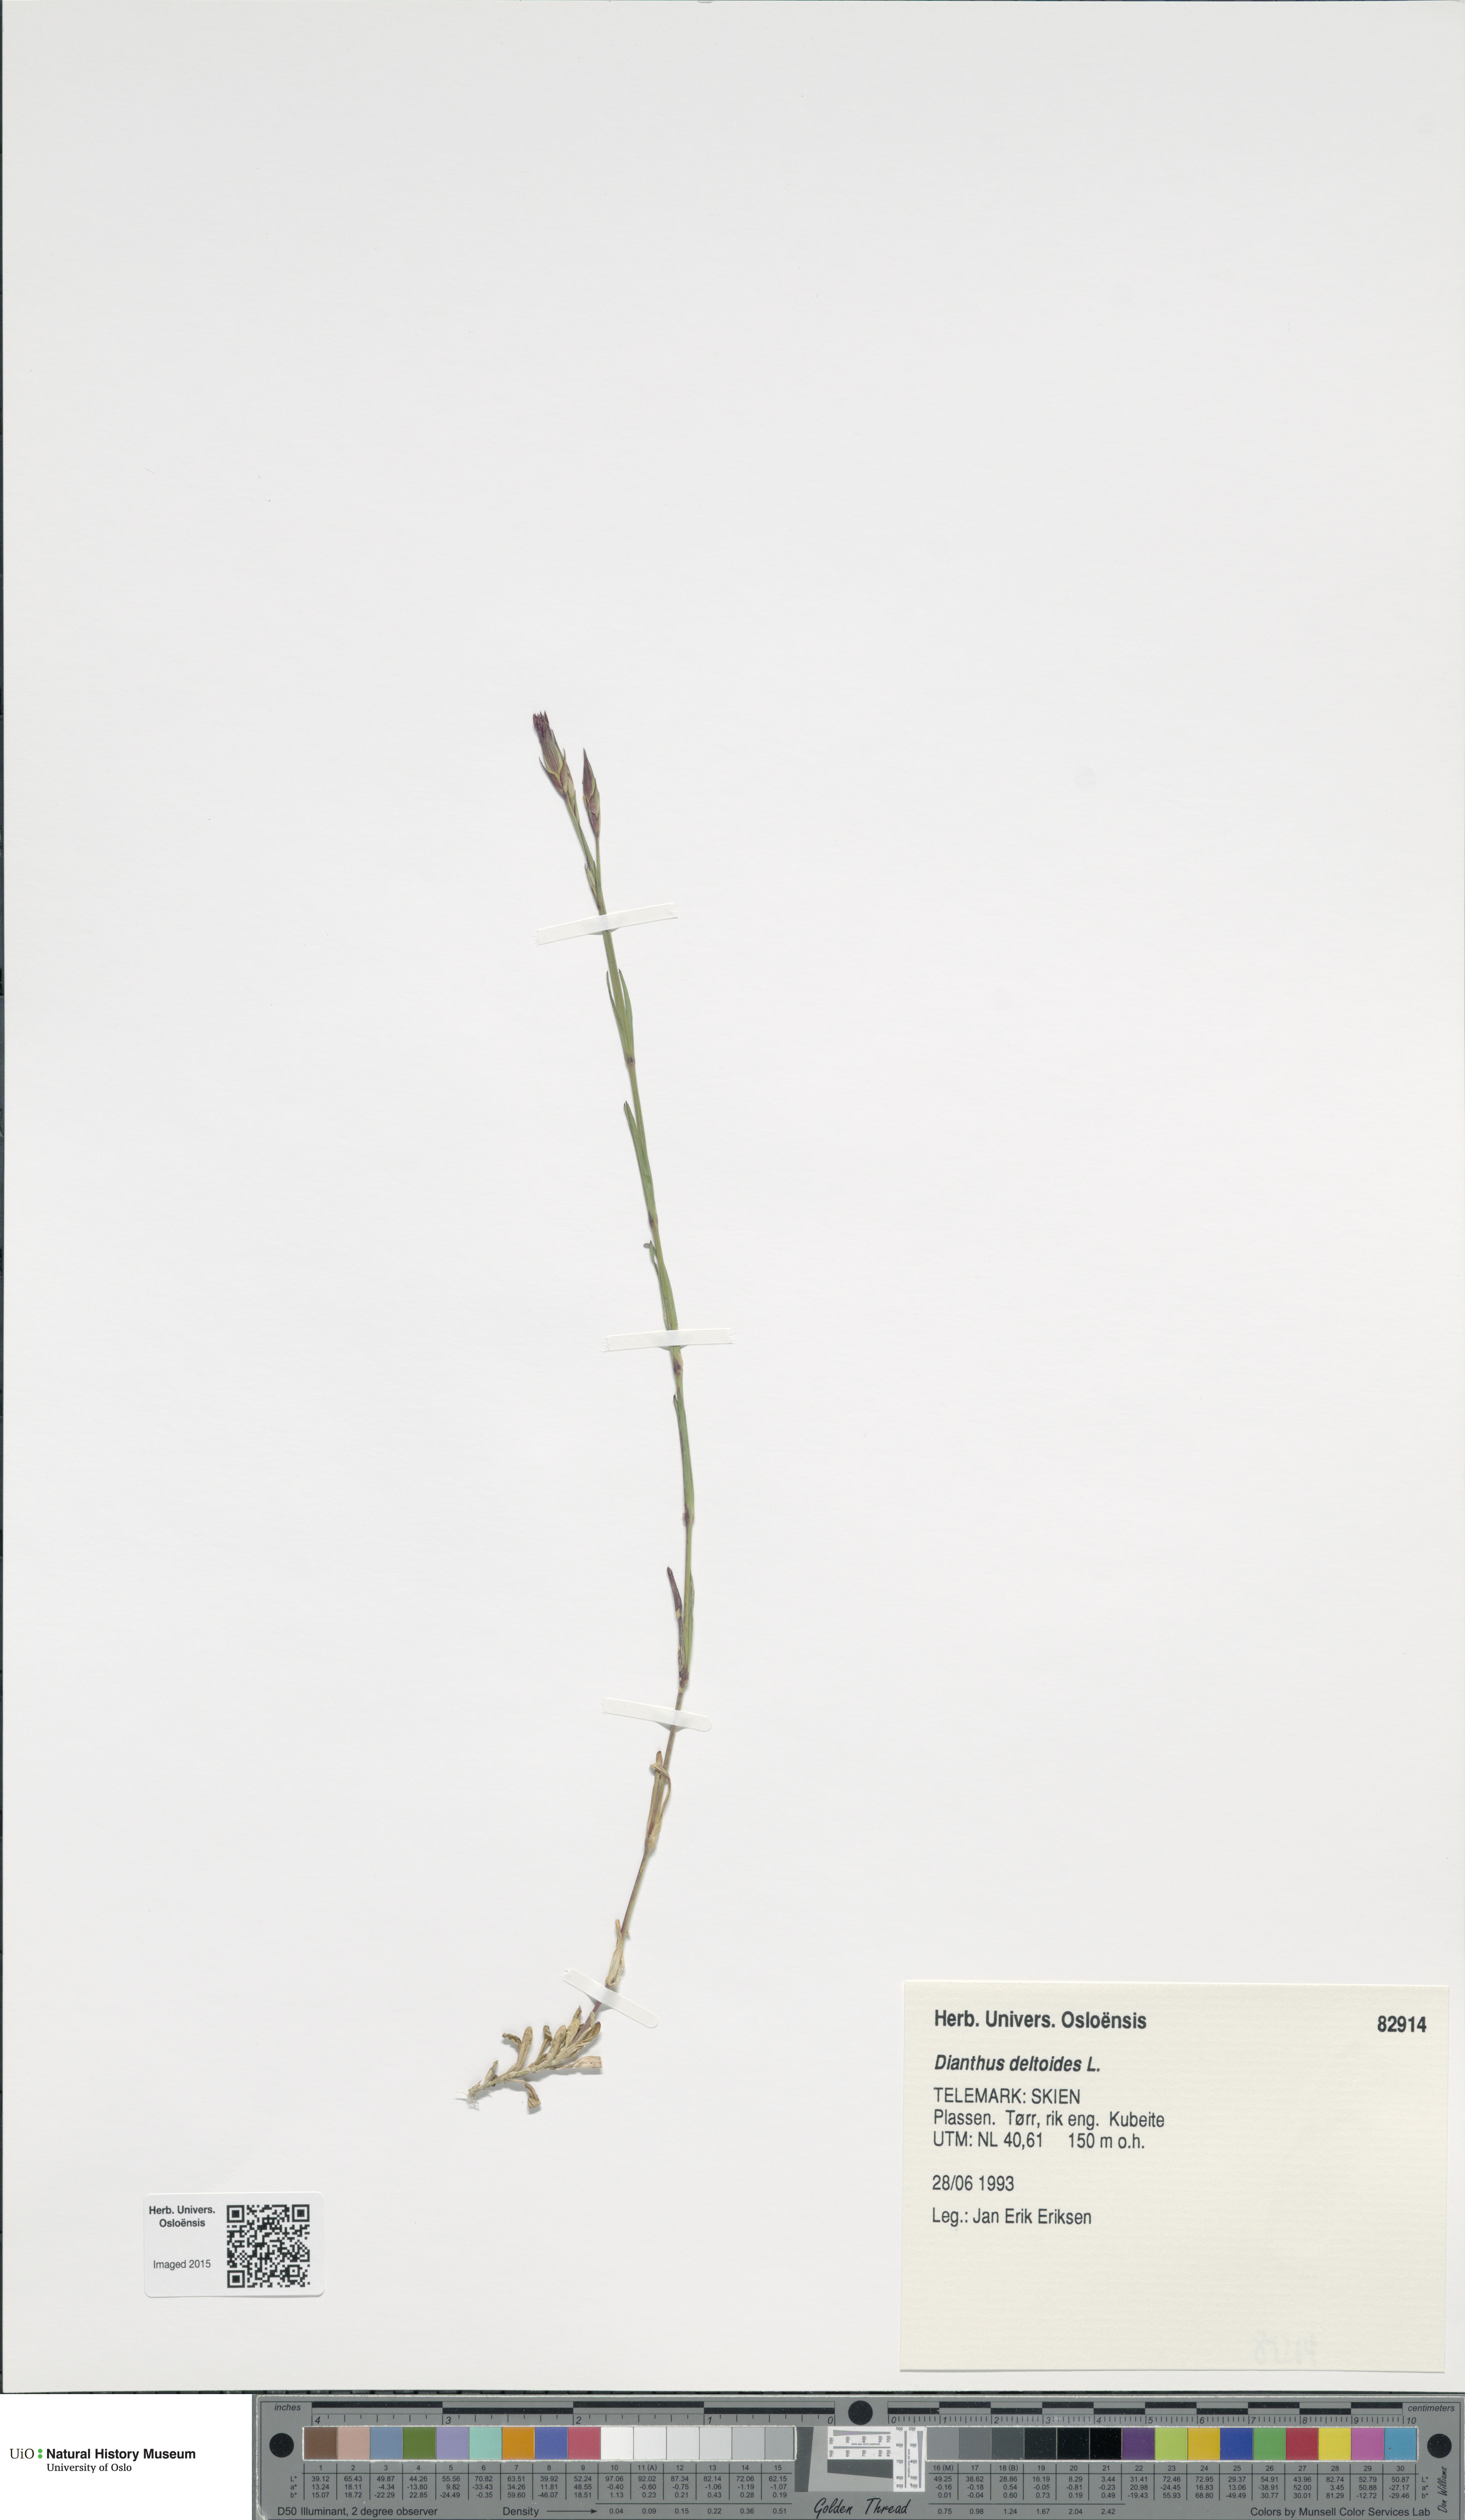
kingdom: Plantae
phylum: Tracheophyta
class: Magnoliopsida
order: Caryophyllales
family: Caryophyllaceae
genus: Dianthus
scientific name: Dianthus deltoides
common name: Maiden pink
